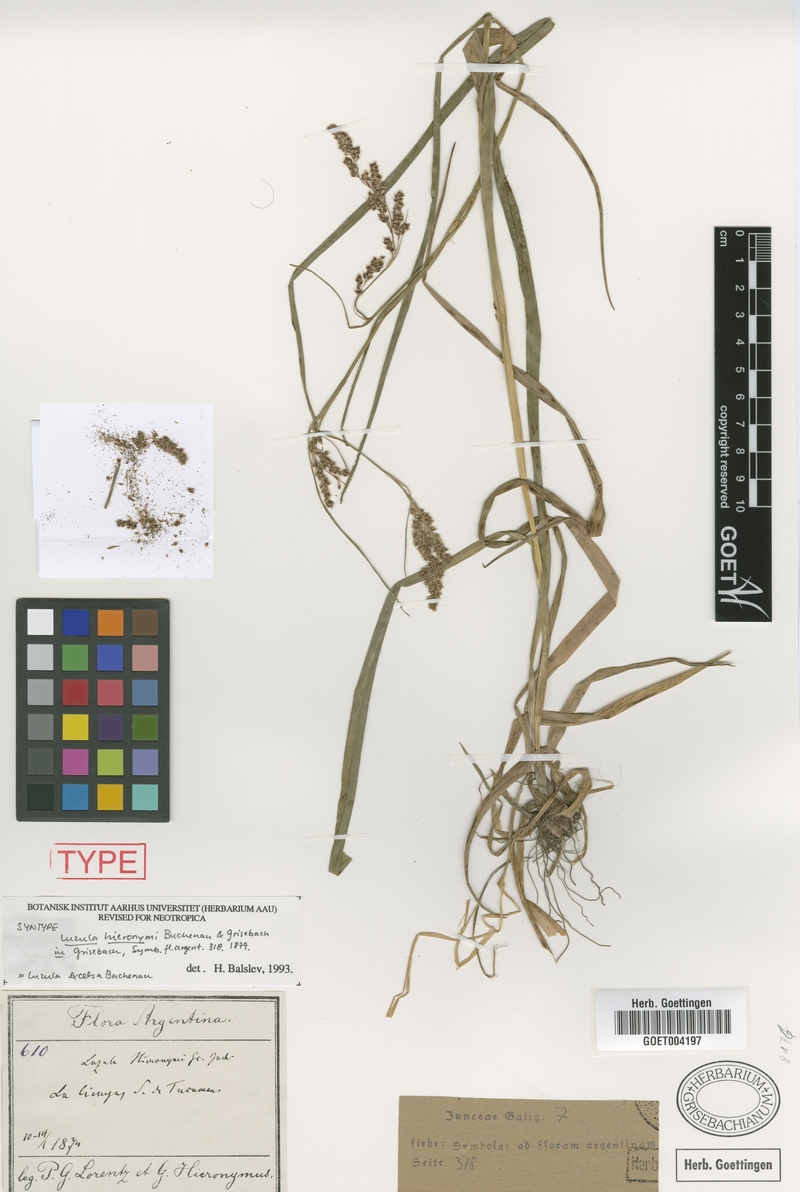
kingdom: Plantae
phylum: Tracheophyta
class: Liliopsida
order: Poales
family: Juncaceae
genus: Luzula
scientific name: Luzula excelsa
